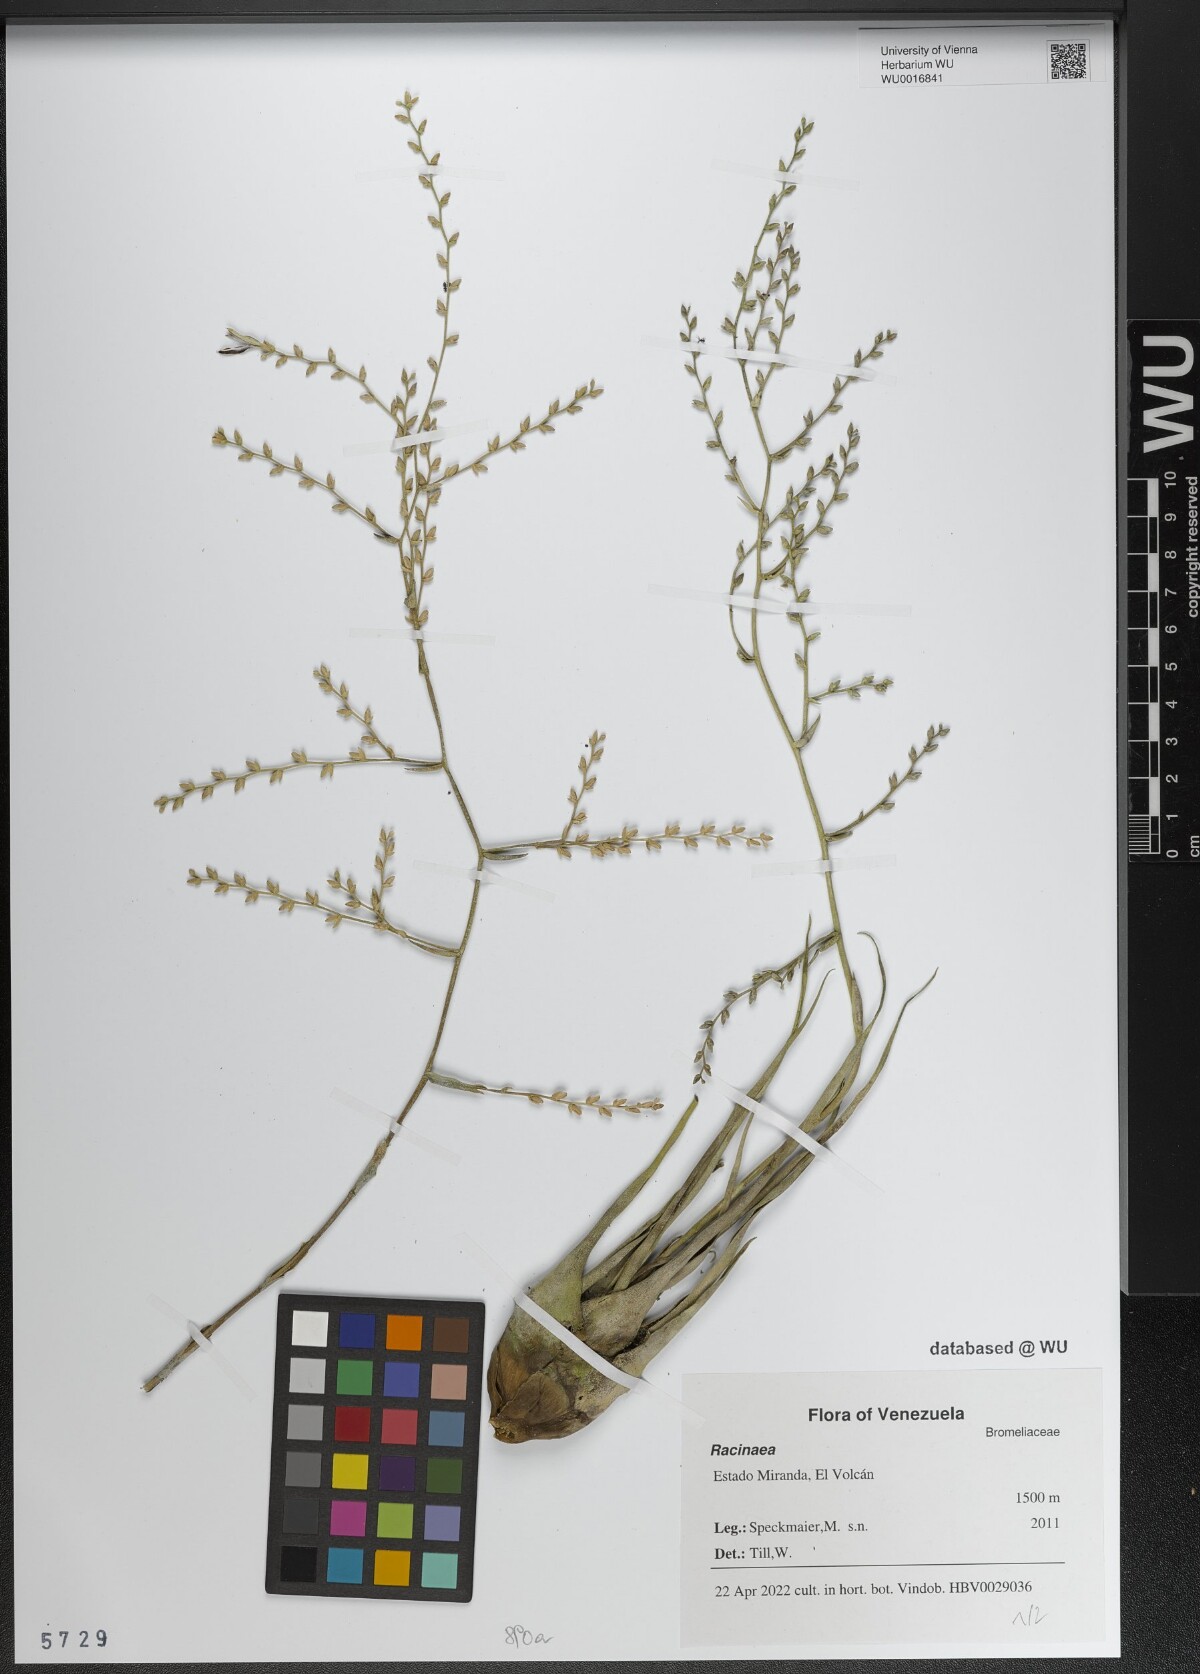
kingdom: Plantae
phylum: Tracheophyta
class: Liliopsida
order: Poales
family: Bromeliaceae
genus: Racinaea
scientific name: Racinaea
